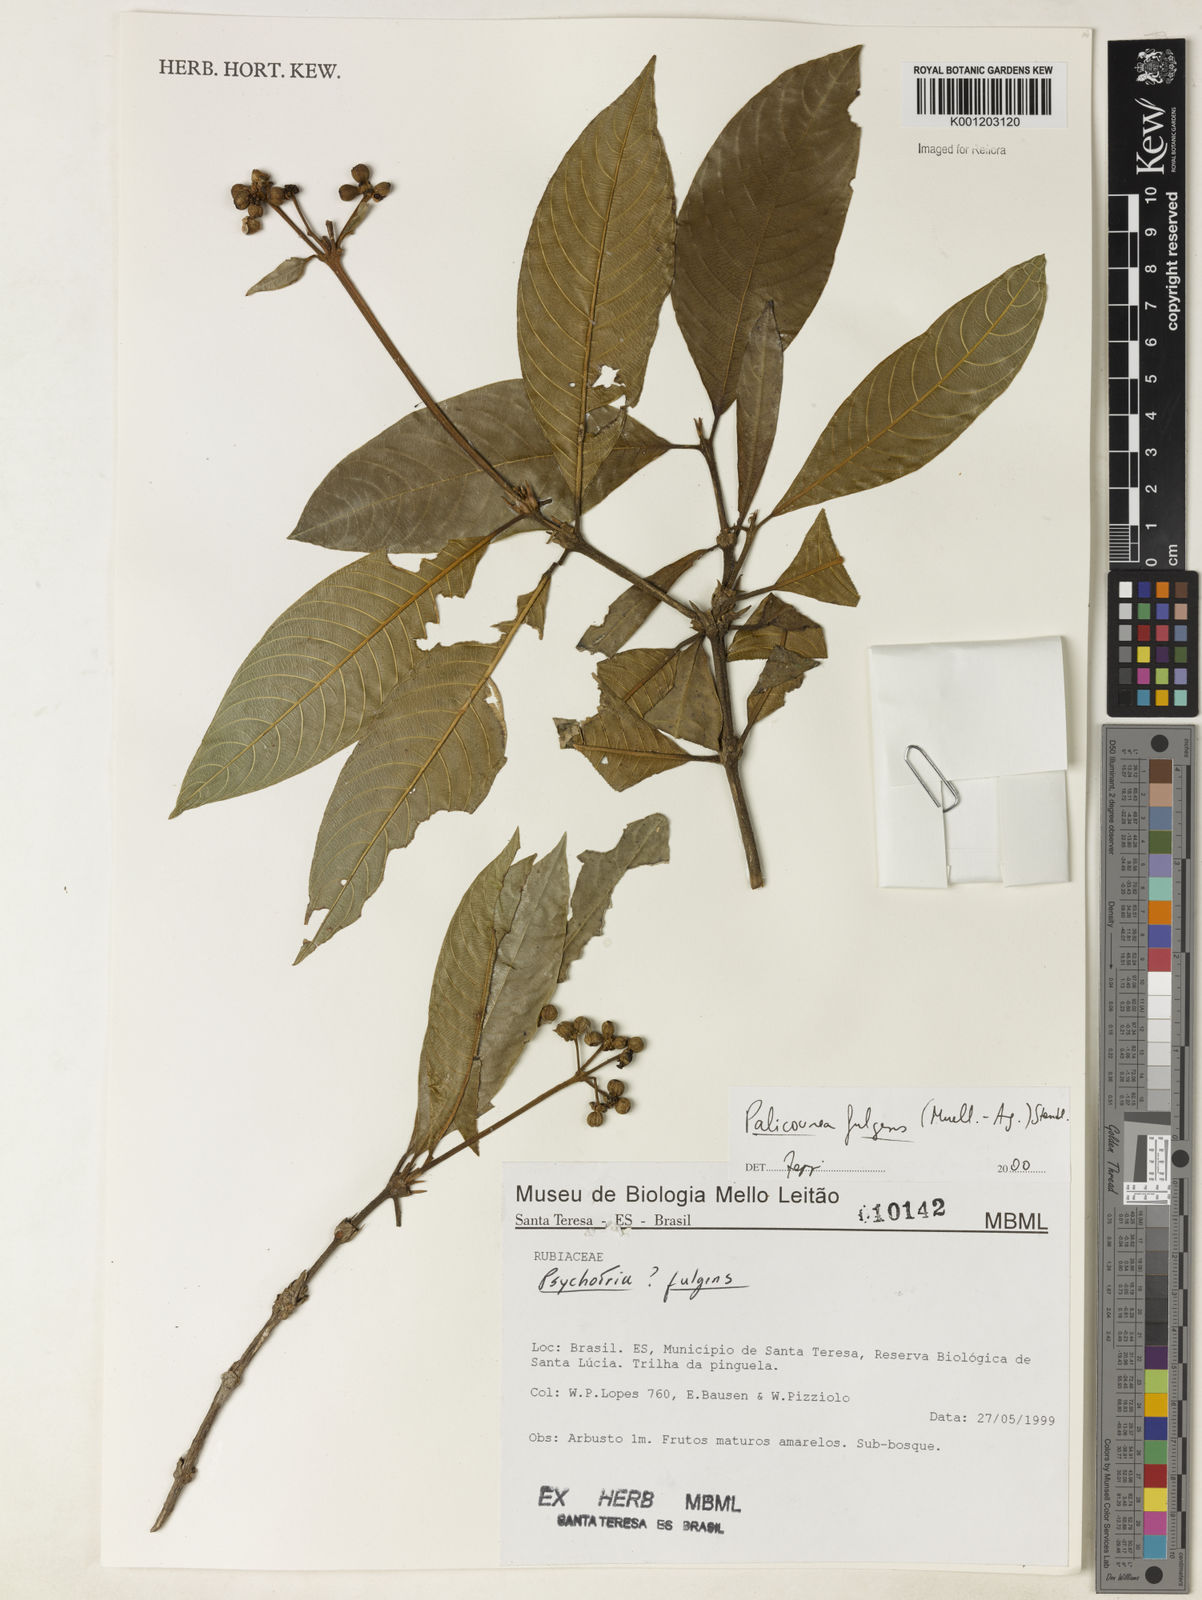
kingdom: Plantae
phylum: Tracheophyta
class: Magnoliopsida
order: Gentianales
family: Rubiaceae
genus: Palicourea
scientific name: Palicourea
